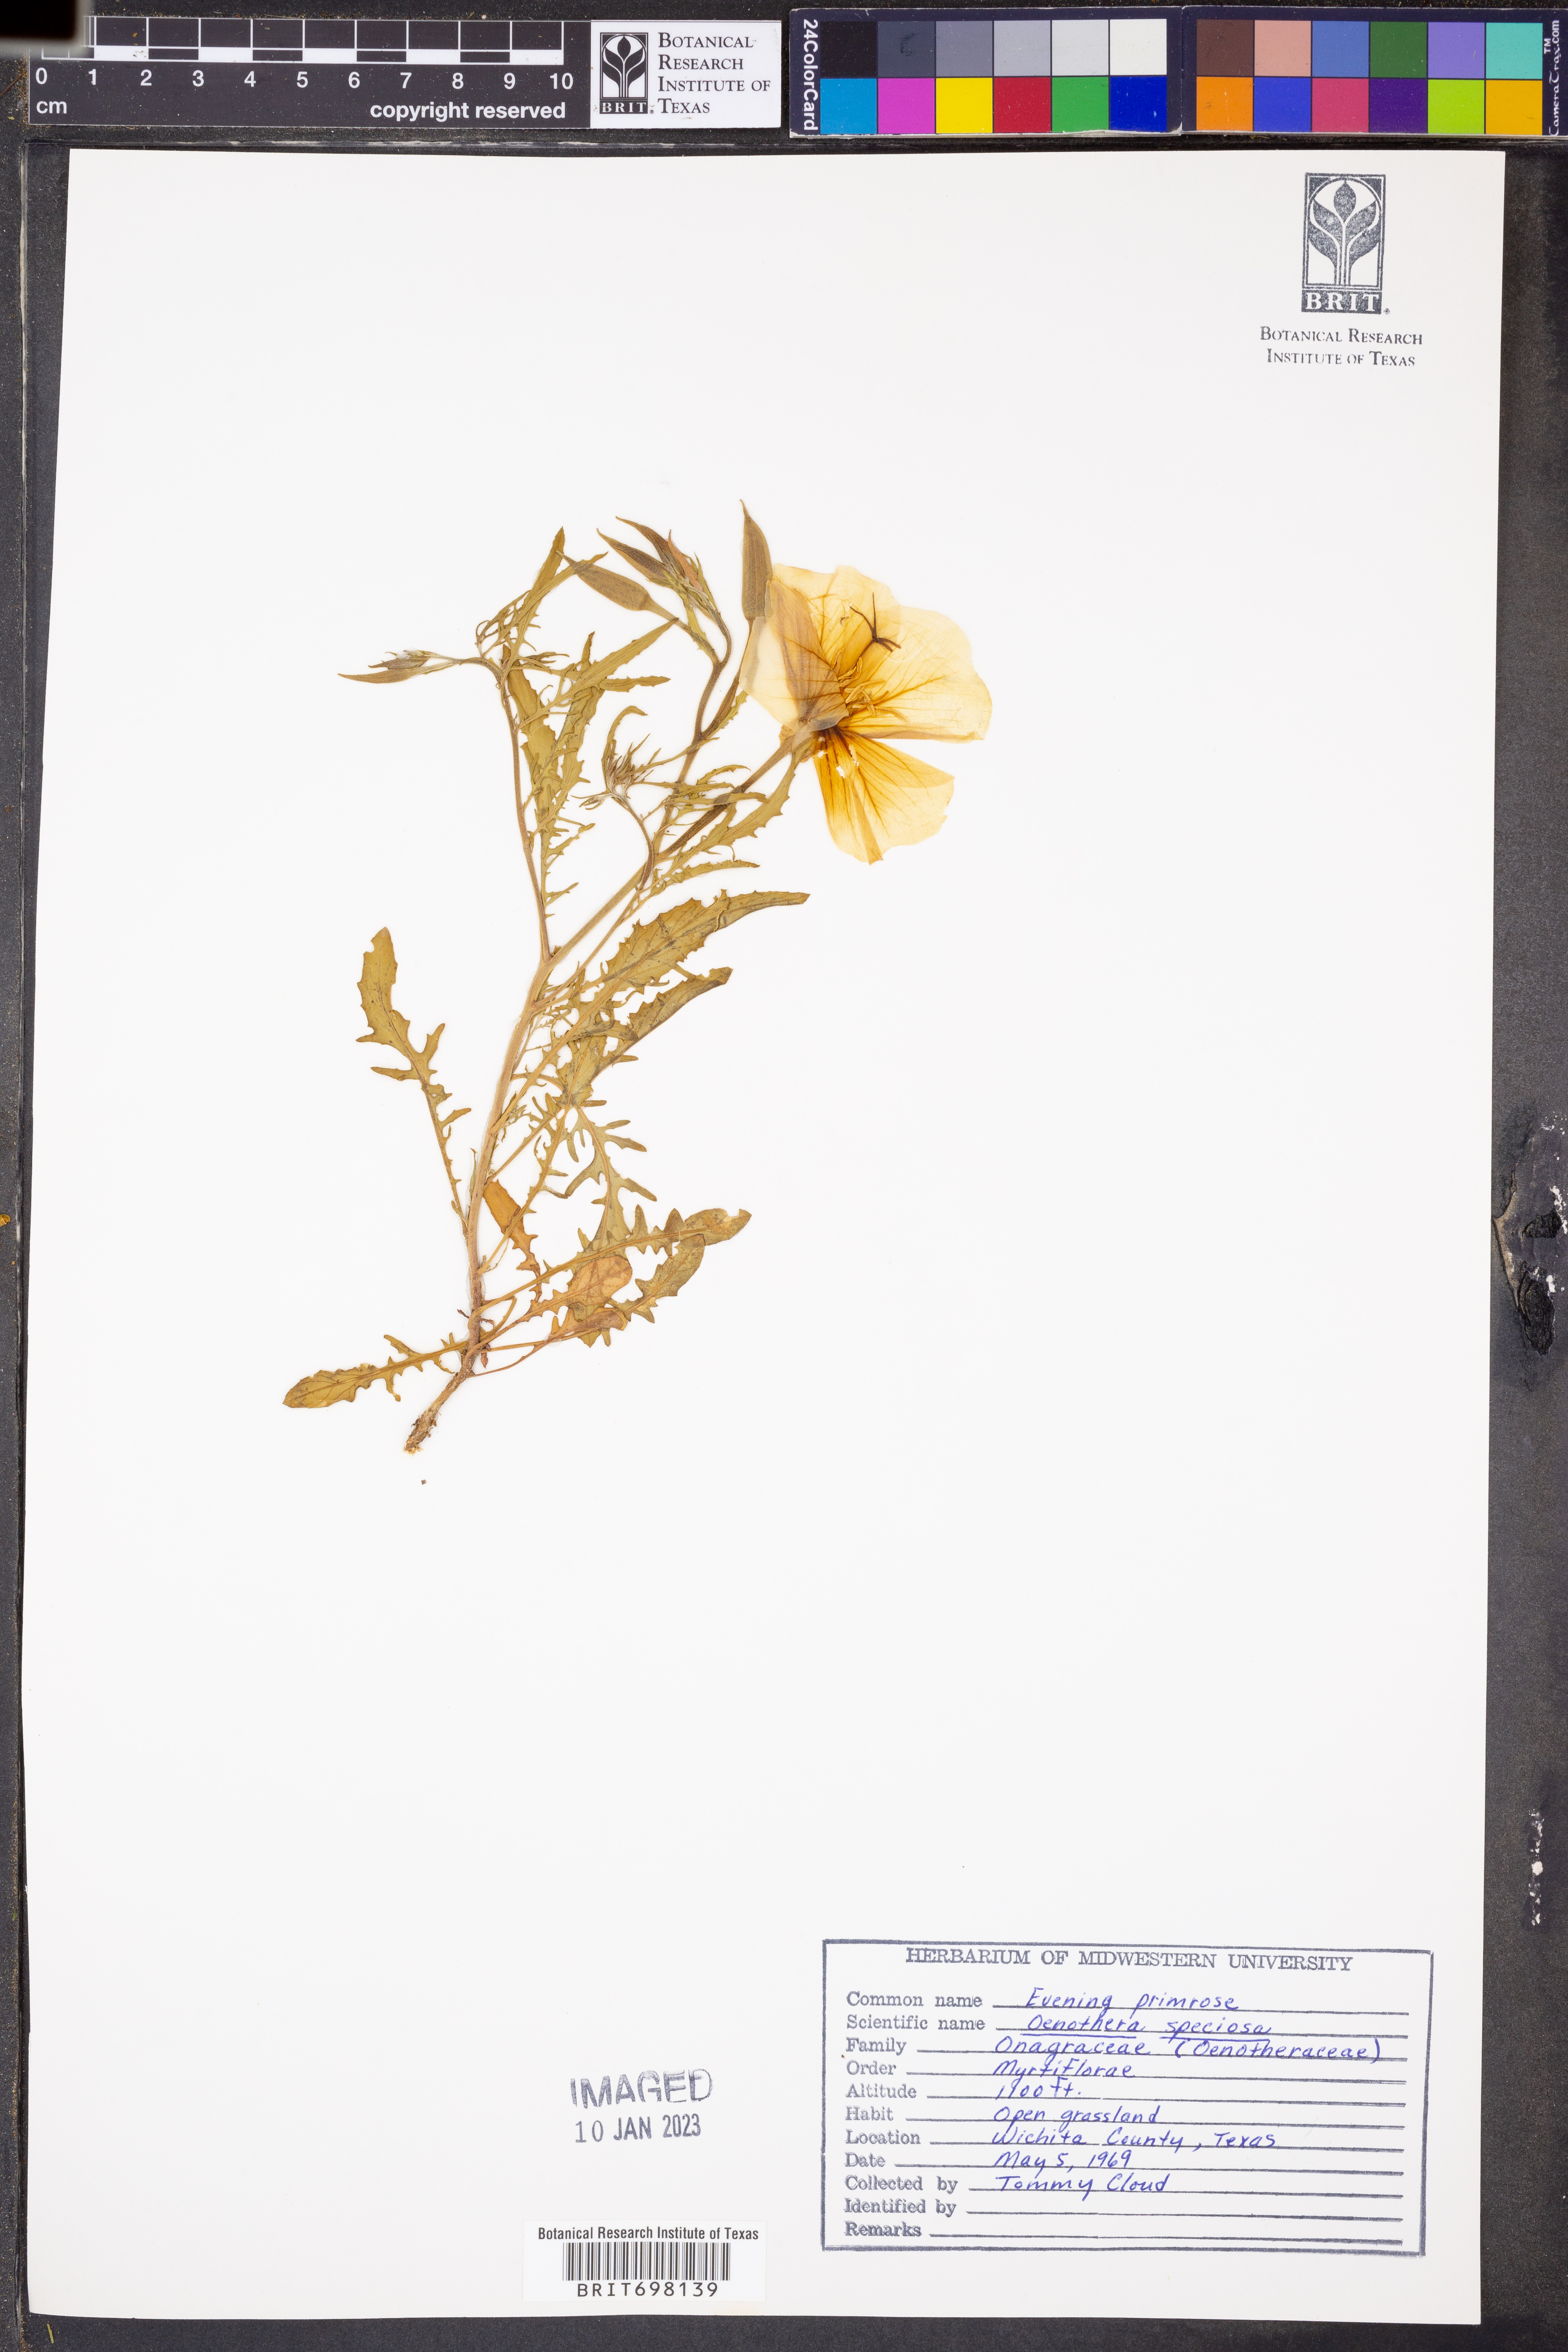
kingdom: Plantae
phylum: Tracheophyta
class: Magnoliopsida
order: Myrtales
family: Onagraceae
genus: Oenothera
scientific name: Oenothera speciosa
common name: White evening-primrose
